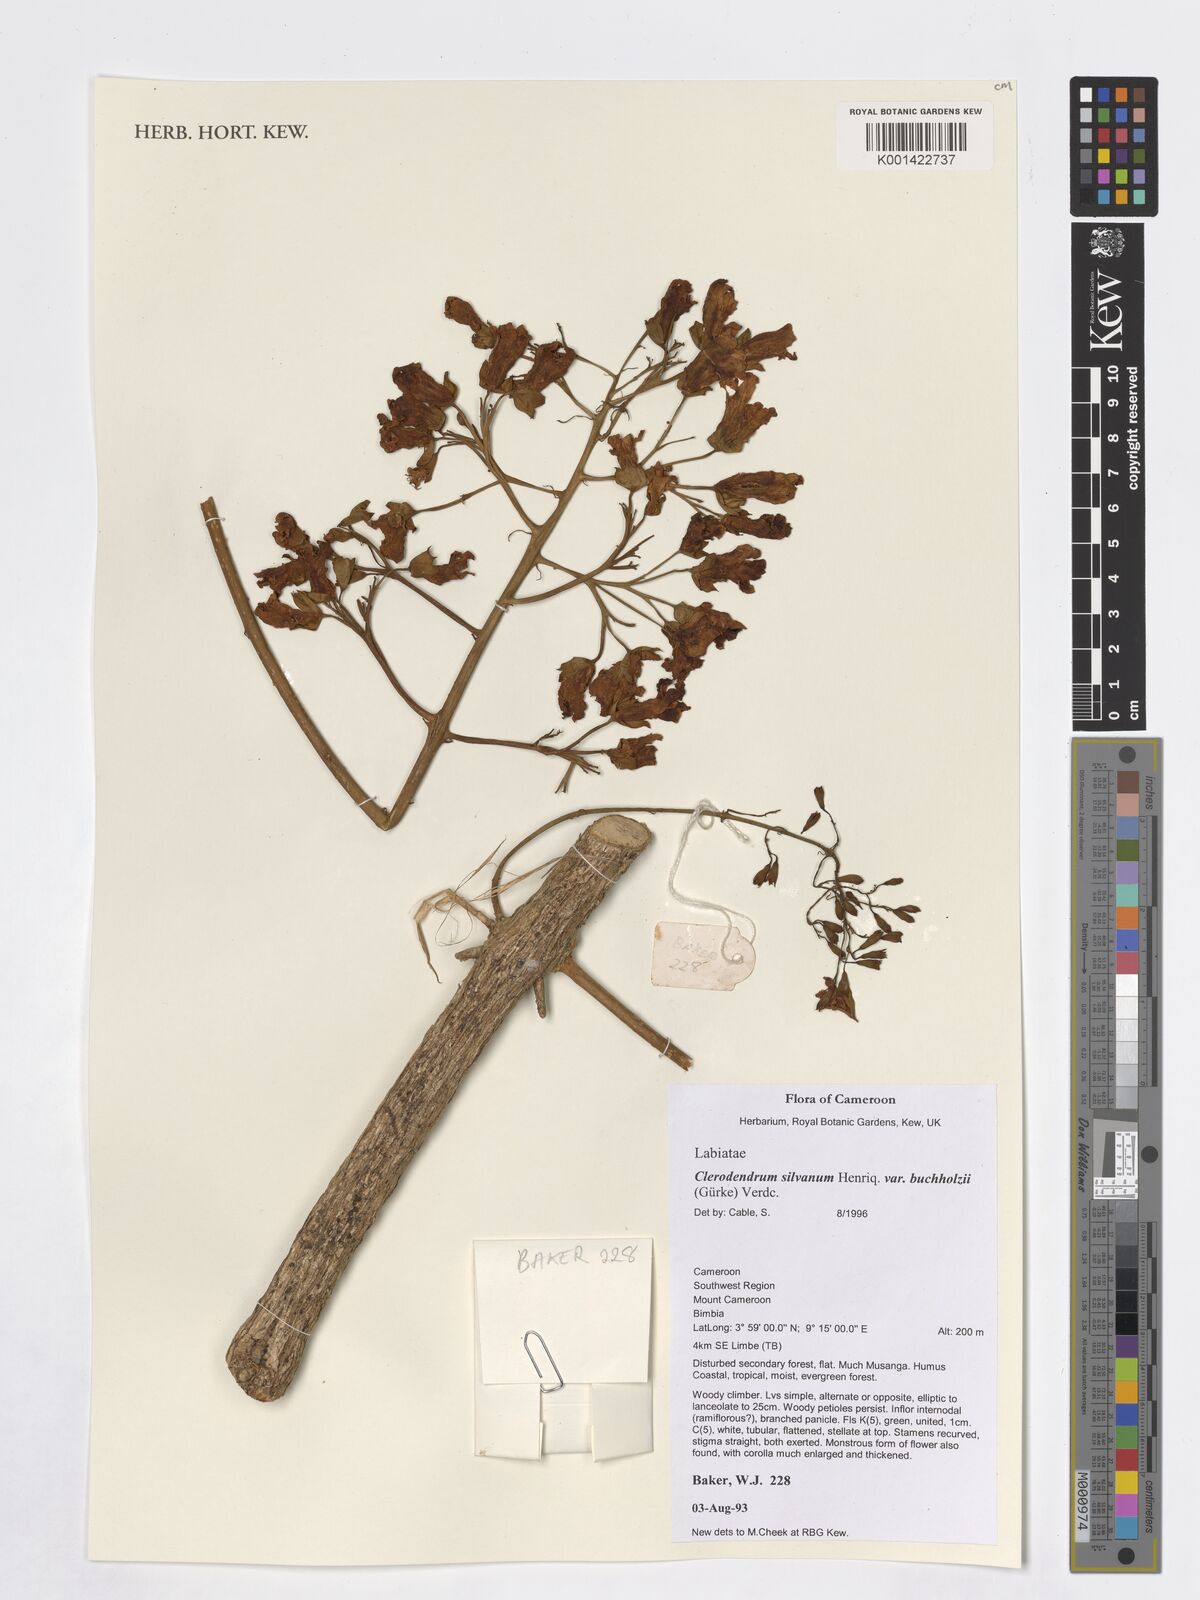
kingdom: Plantae
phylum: Tracheophyta
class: Magnoliopsida
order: Lamiales
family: Lamiaceae
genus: Clerodendrum
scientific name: Clerodendrum silvanum
